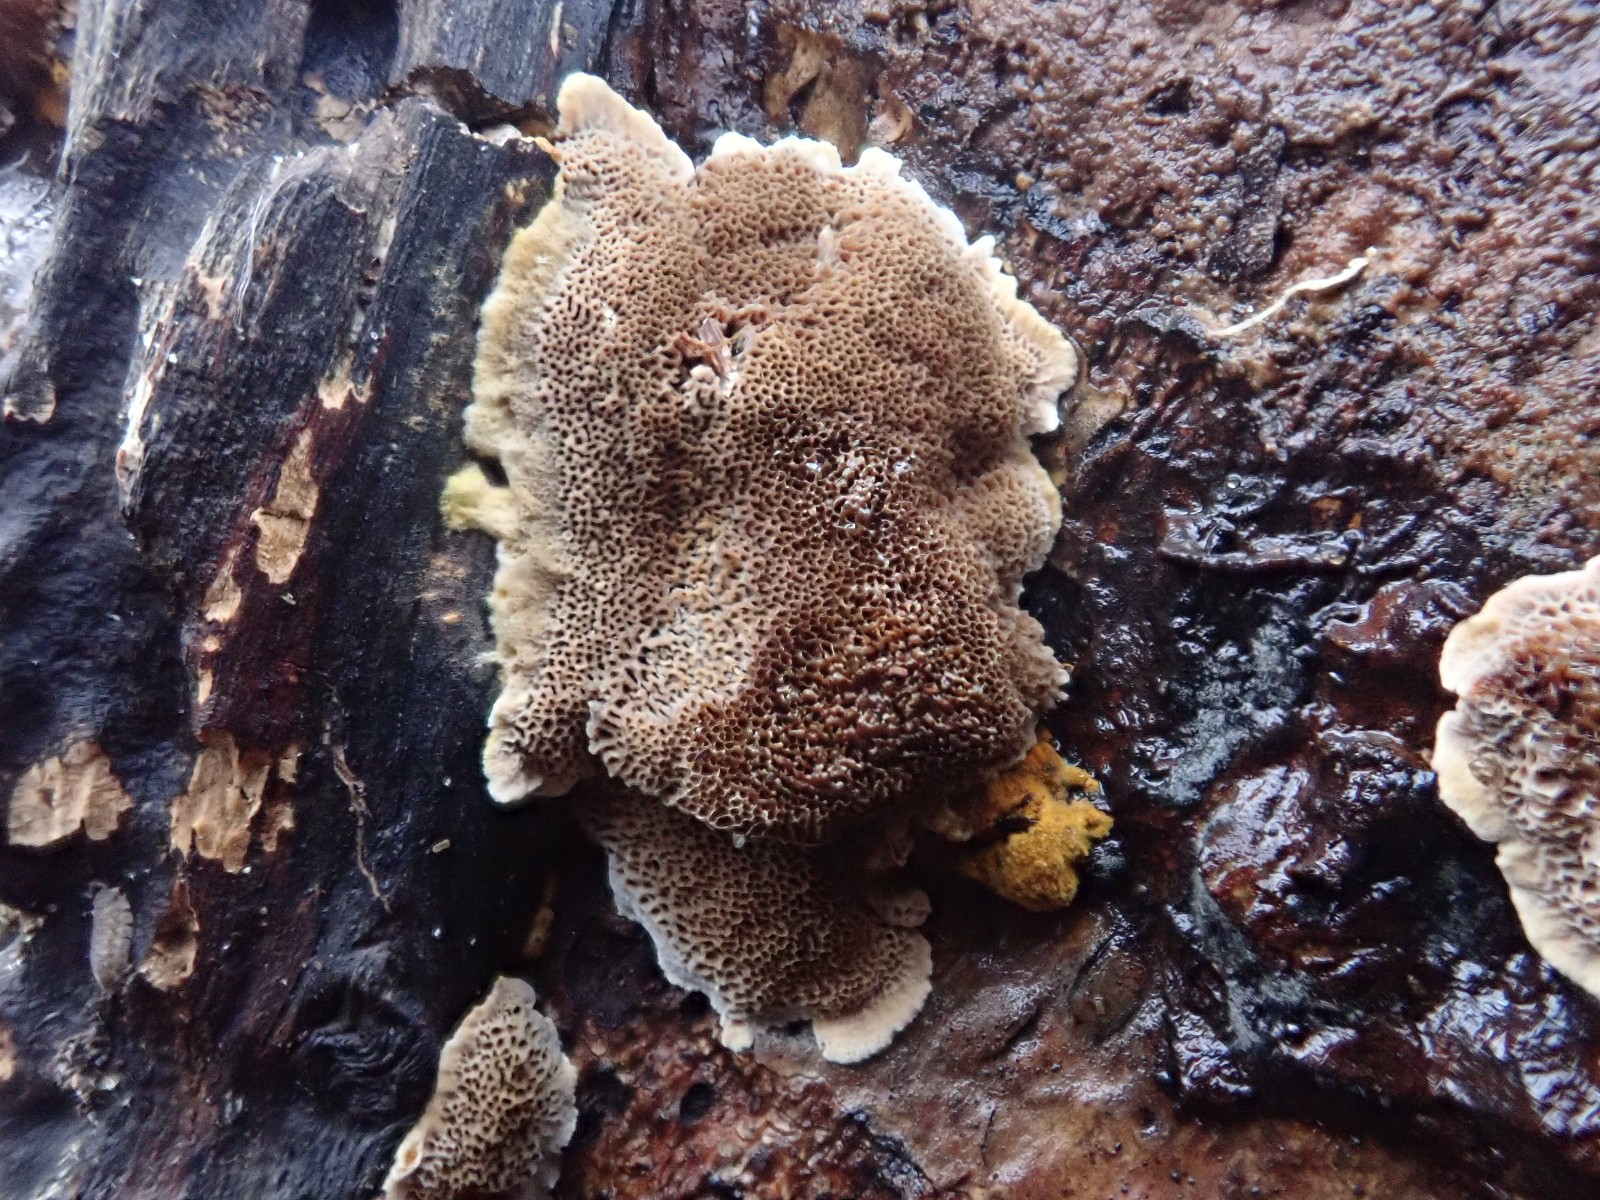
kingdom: Fungi
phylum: Basidiomycota
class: Agaricomycetes
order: Hymenochaetales
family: Hymenochaetaceae
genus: Fuscoporia
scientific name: Fuscoporia ferruginosa
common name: rustbrun ildporesvamp
